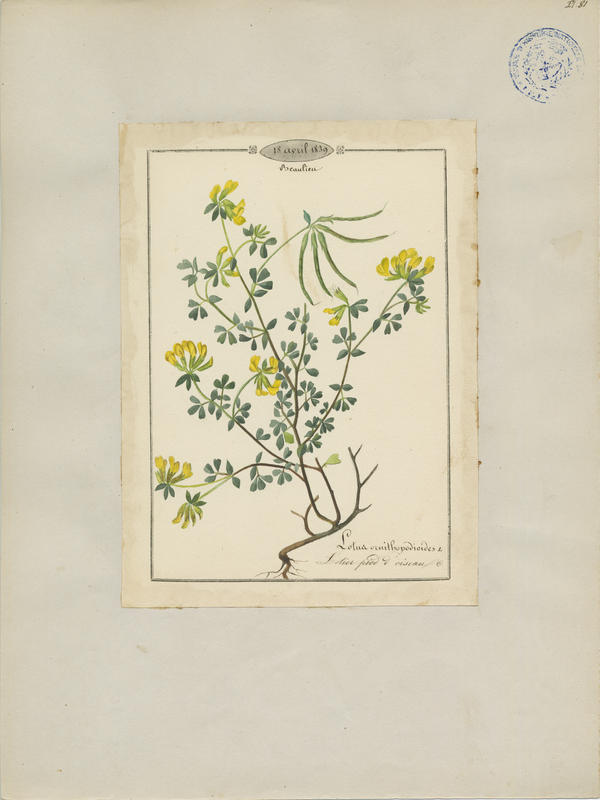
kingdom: Plantae
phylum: Tracheophyta
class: Magnoliopsida
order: Fabales
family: Fabaceae
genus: Lotus
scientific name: Lotus ornithopodioides
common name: Southern bird's-foot trefoil
